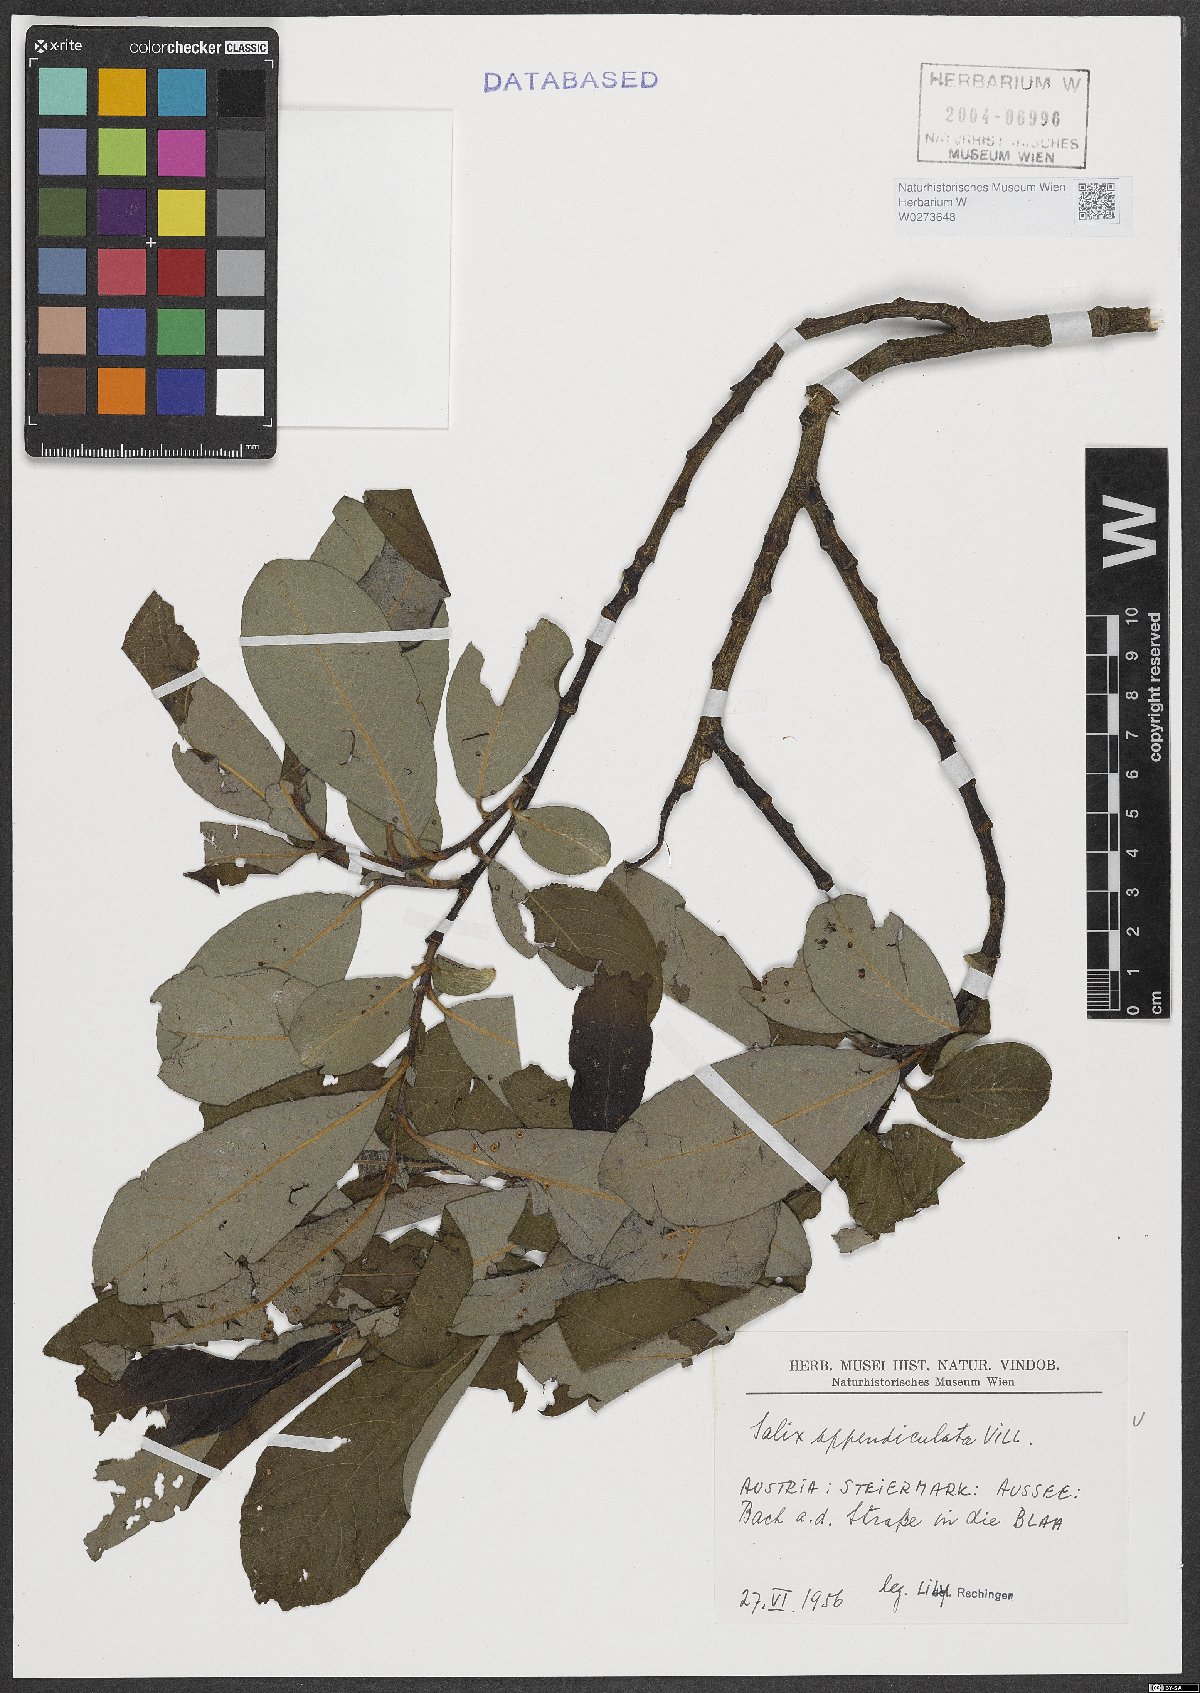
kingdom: Plantae
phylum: Tracheophyta
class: Magnoliopsida
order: Malpighiales
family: Salicaceae
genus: Salix
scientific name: Salix appendiculata
